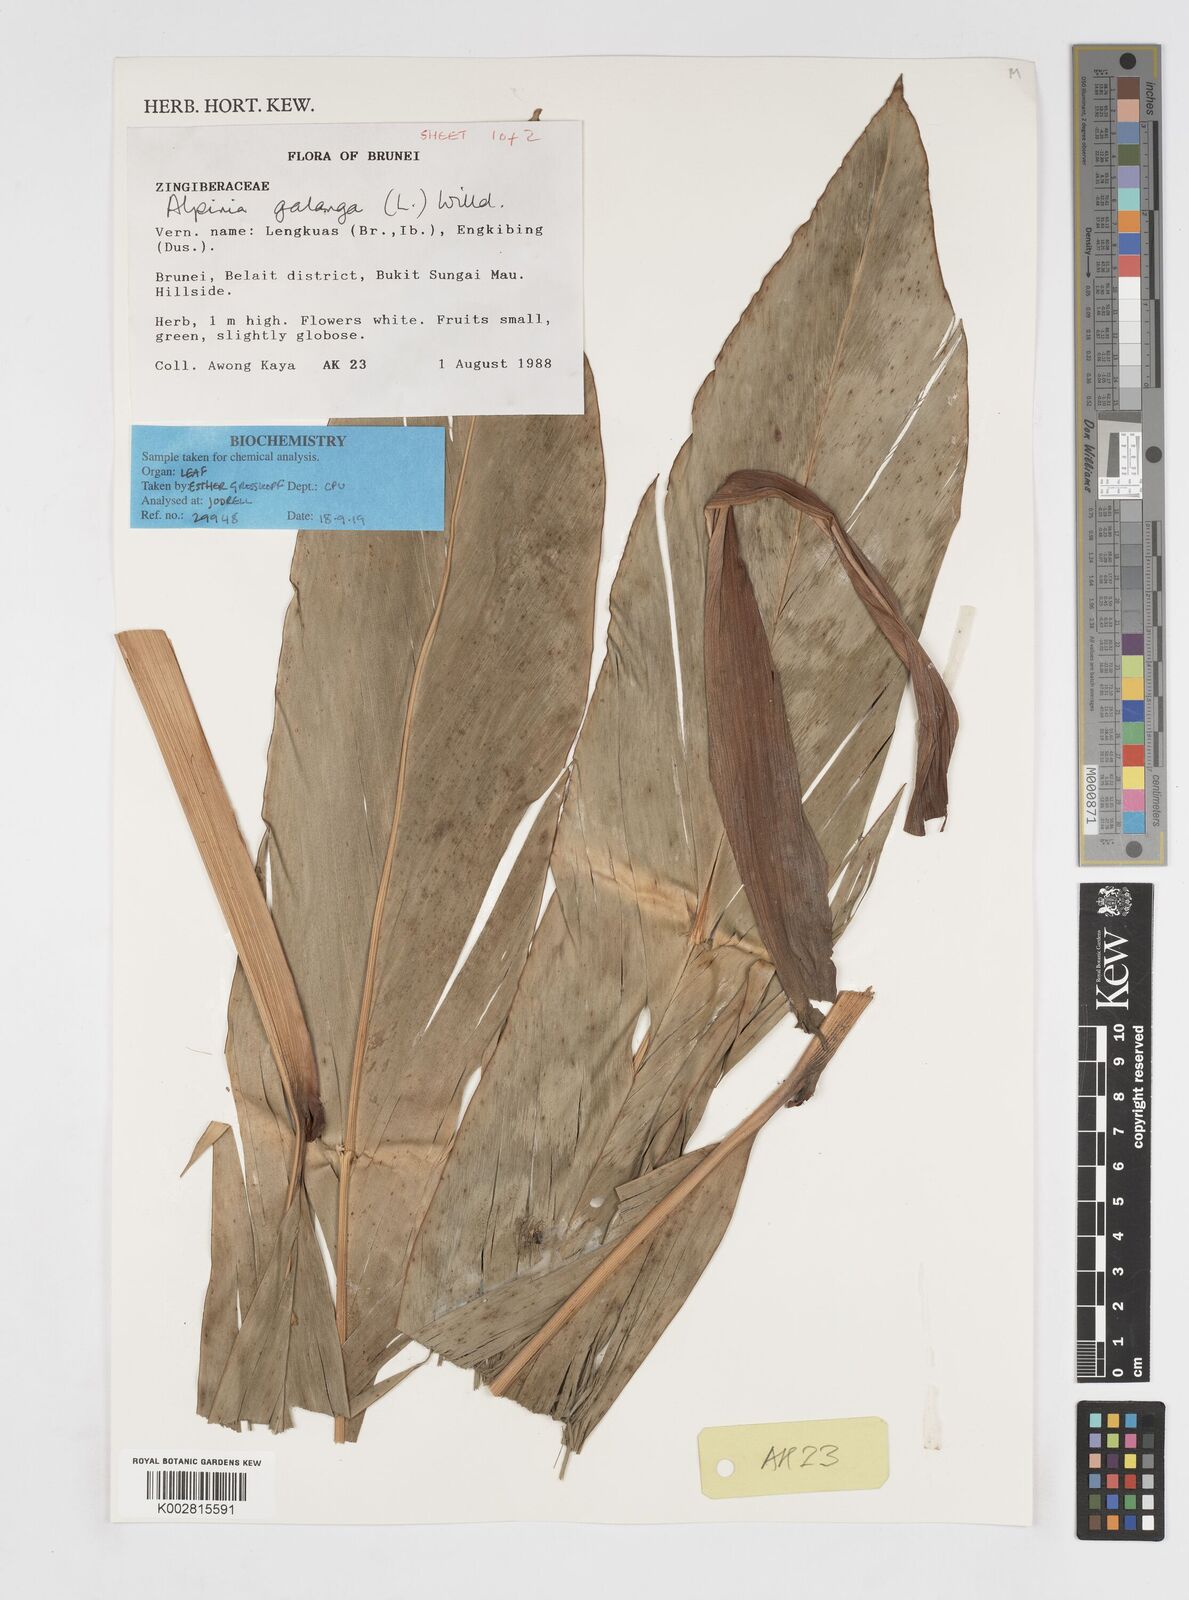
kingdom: Plantae
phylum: Tracheophyta
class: Liliopsida
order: Zingiberales
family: Zingiberaceae
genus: Alpinia
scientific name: Alpinia galanga
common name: Siamese-ginger
